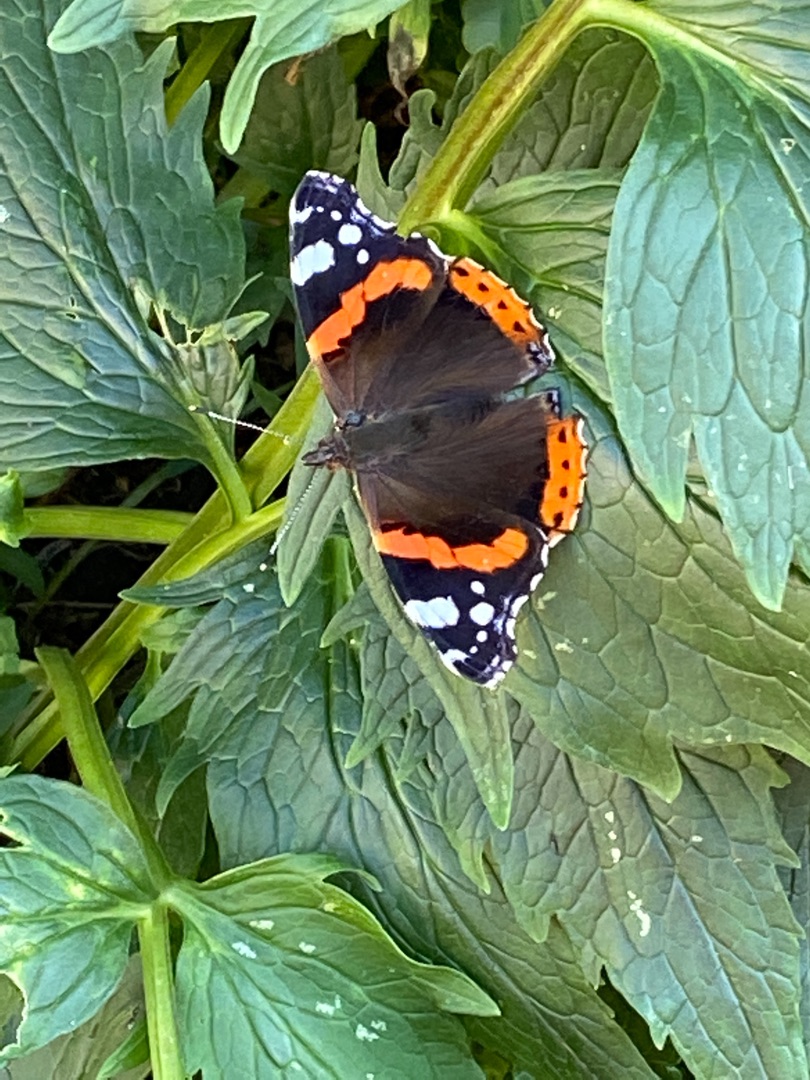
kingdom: Animalia
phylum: Arthropoda
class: Insecta
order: Lepidoptera
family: Nymphalidae
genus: Vanessa
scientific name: Vanessa atalanta
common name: Admiral
